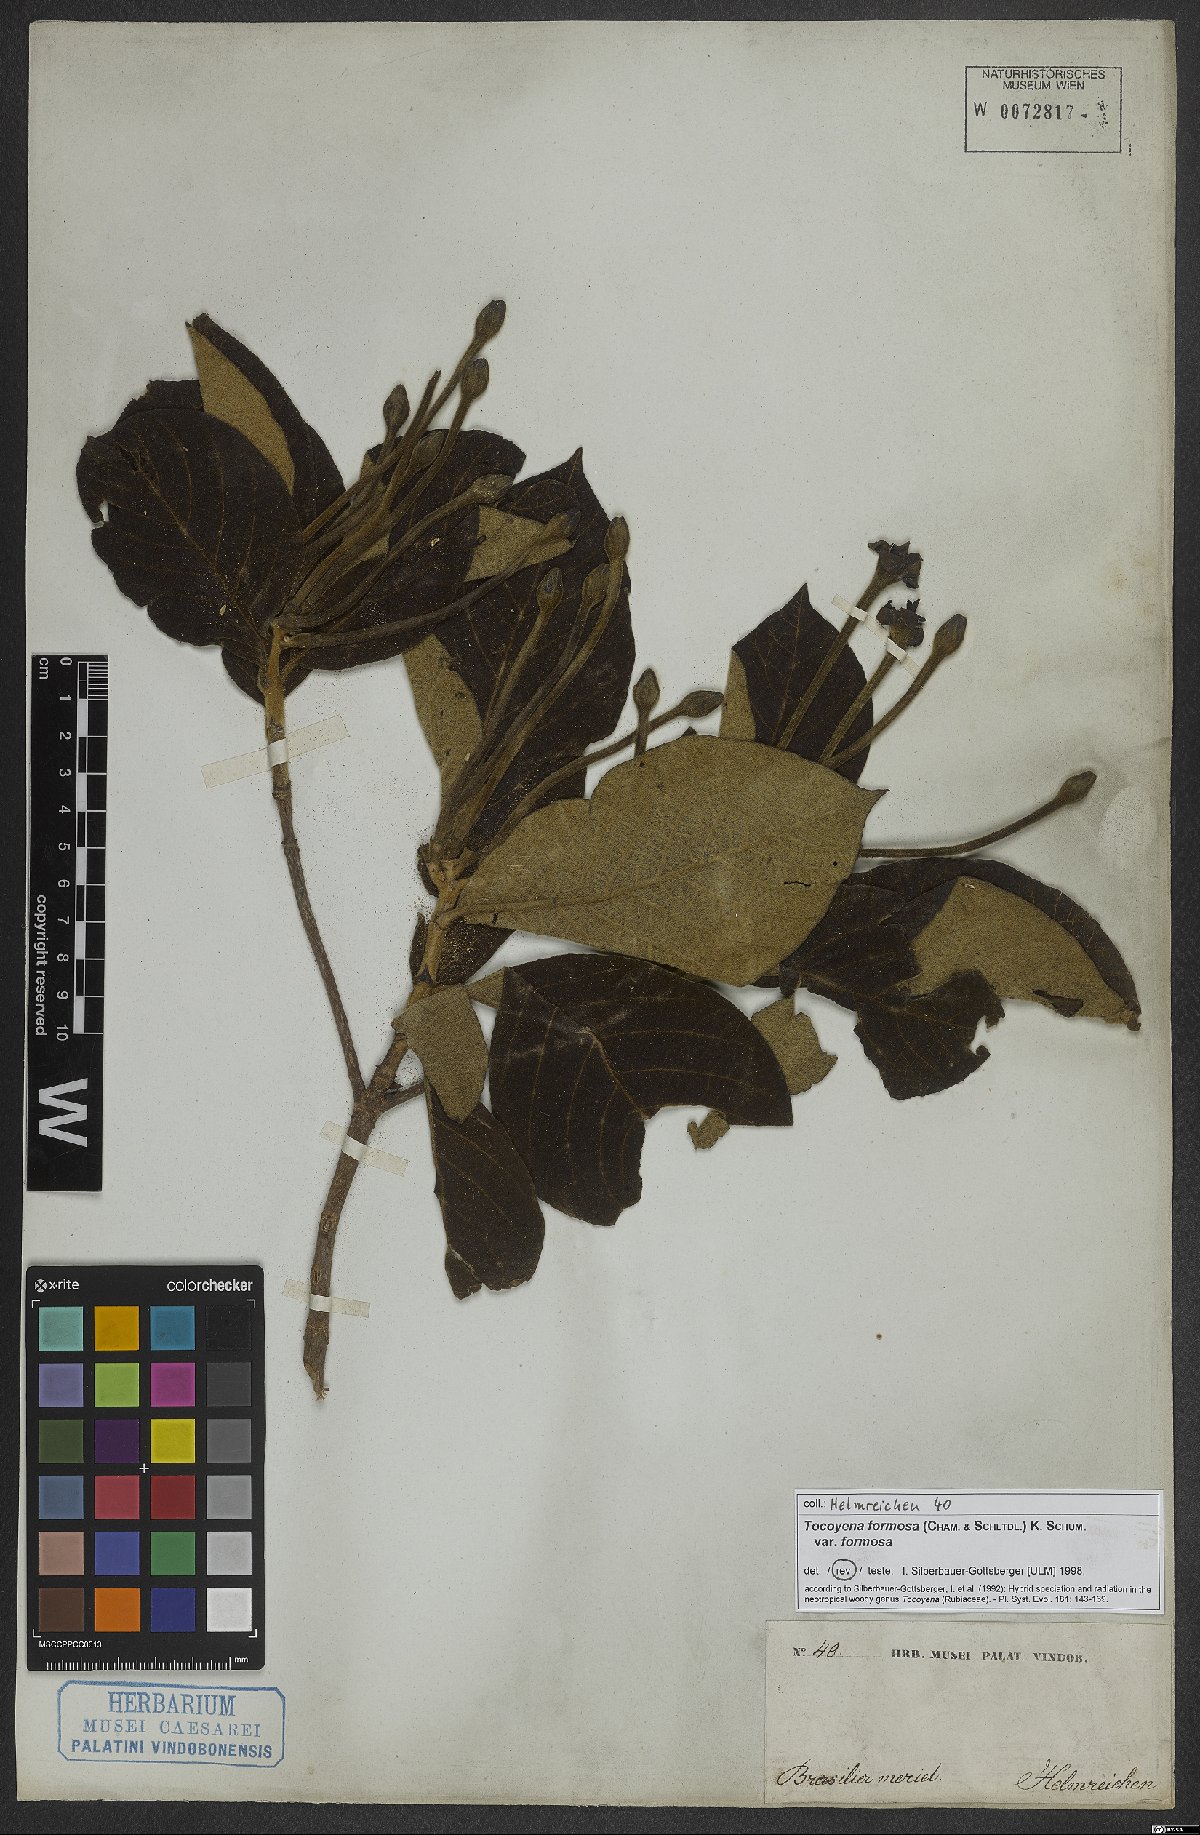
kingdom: Plantae
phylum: Tracheophyta
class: Magnoliopsida
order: Gentianales
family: Rubiaceae
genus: Tocoyena
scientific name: Tocoyena formosa
